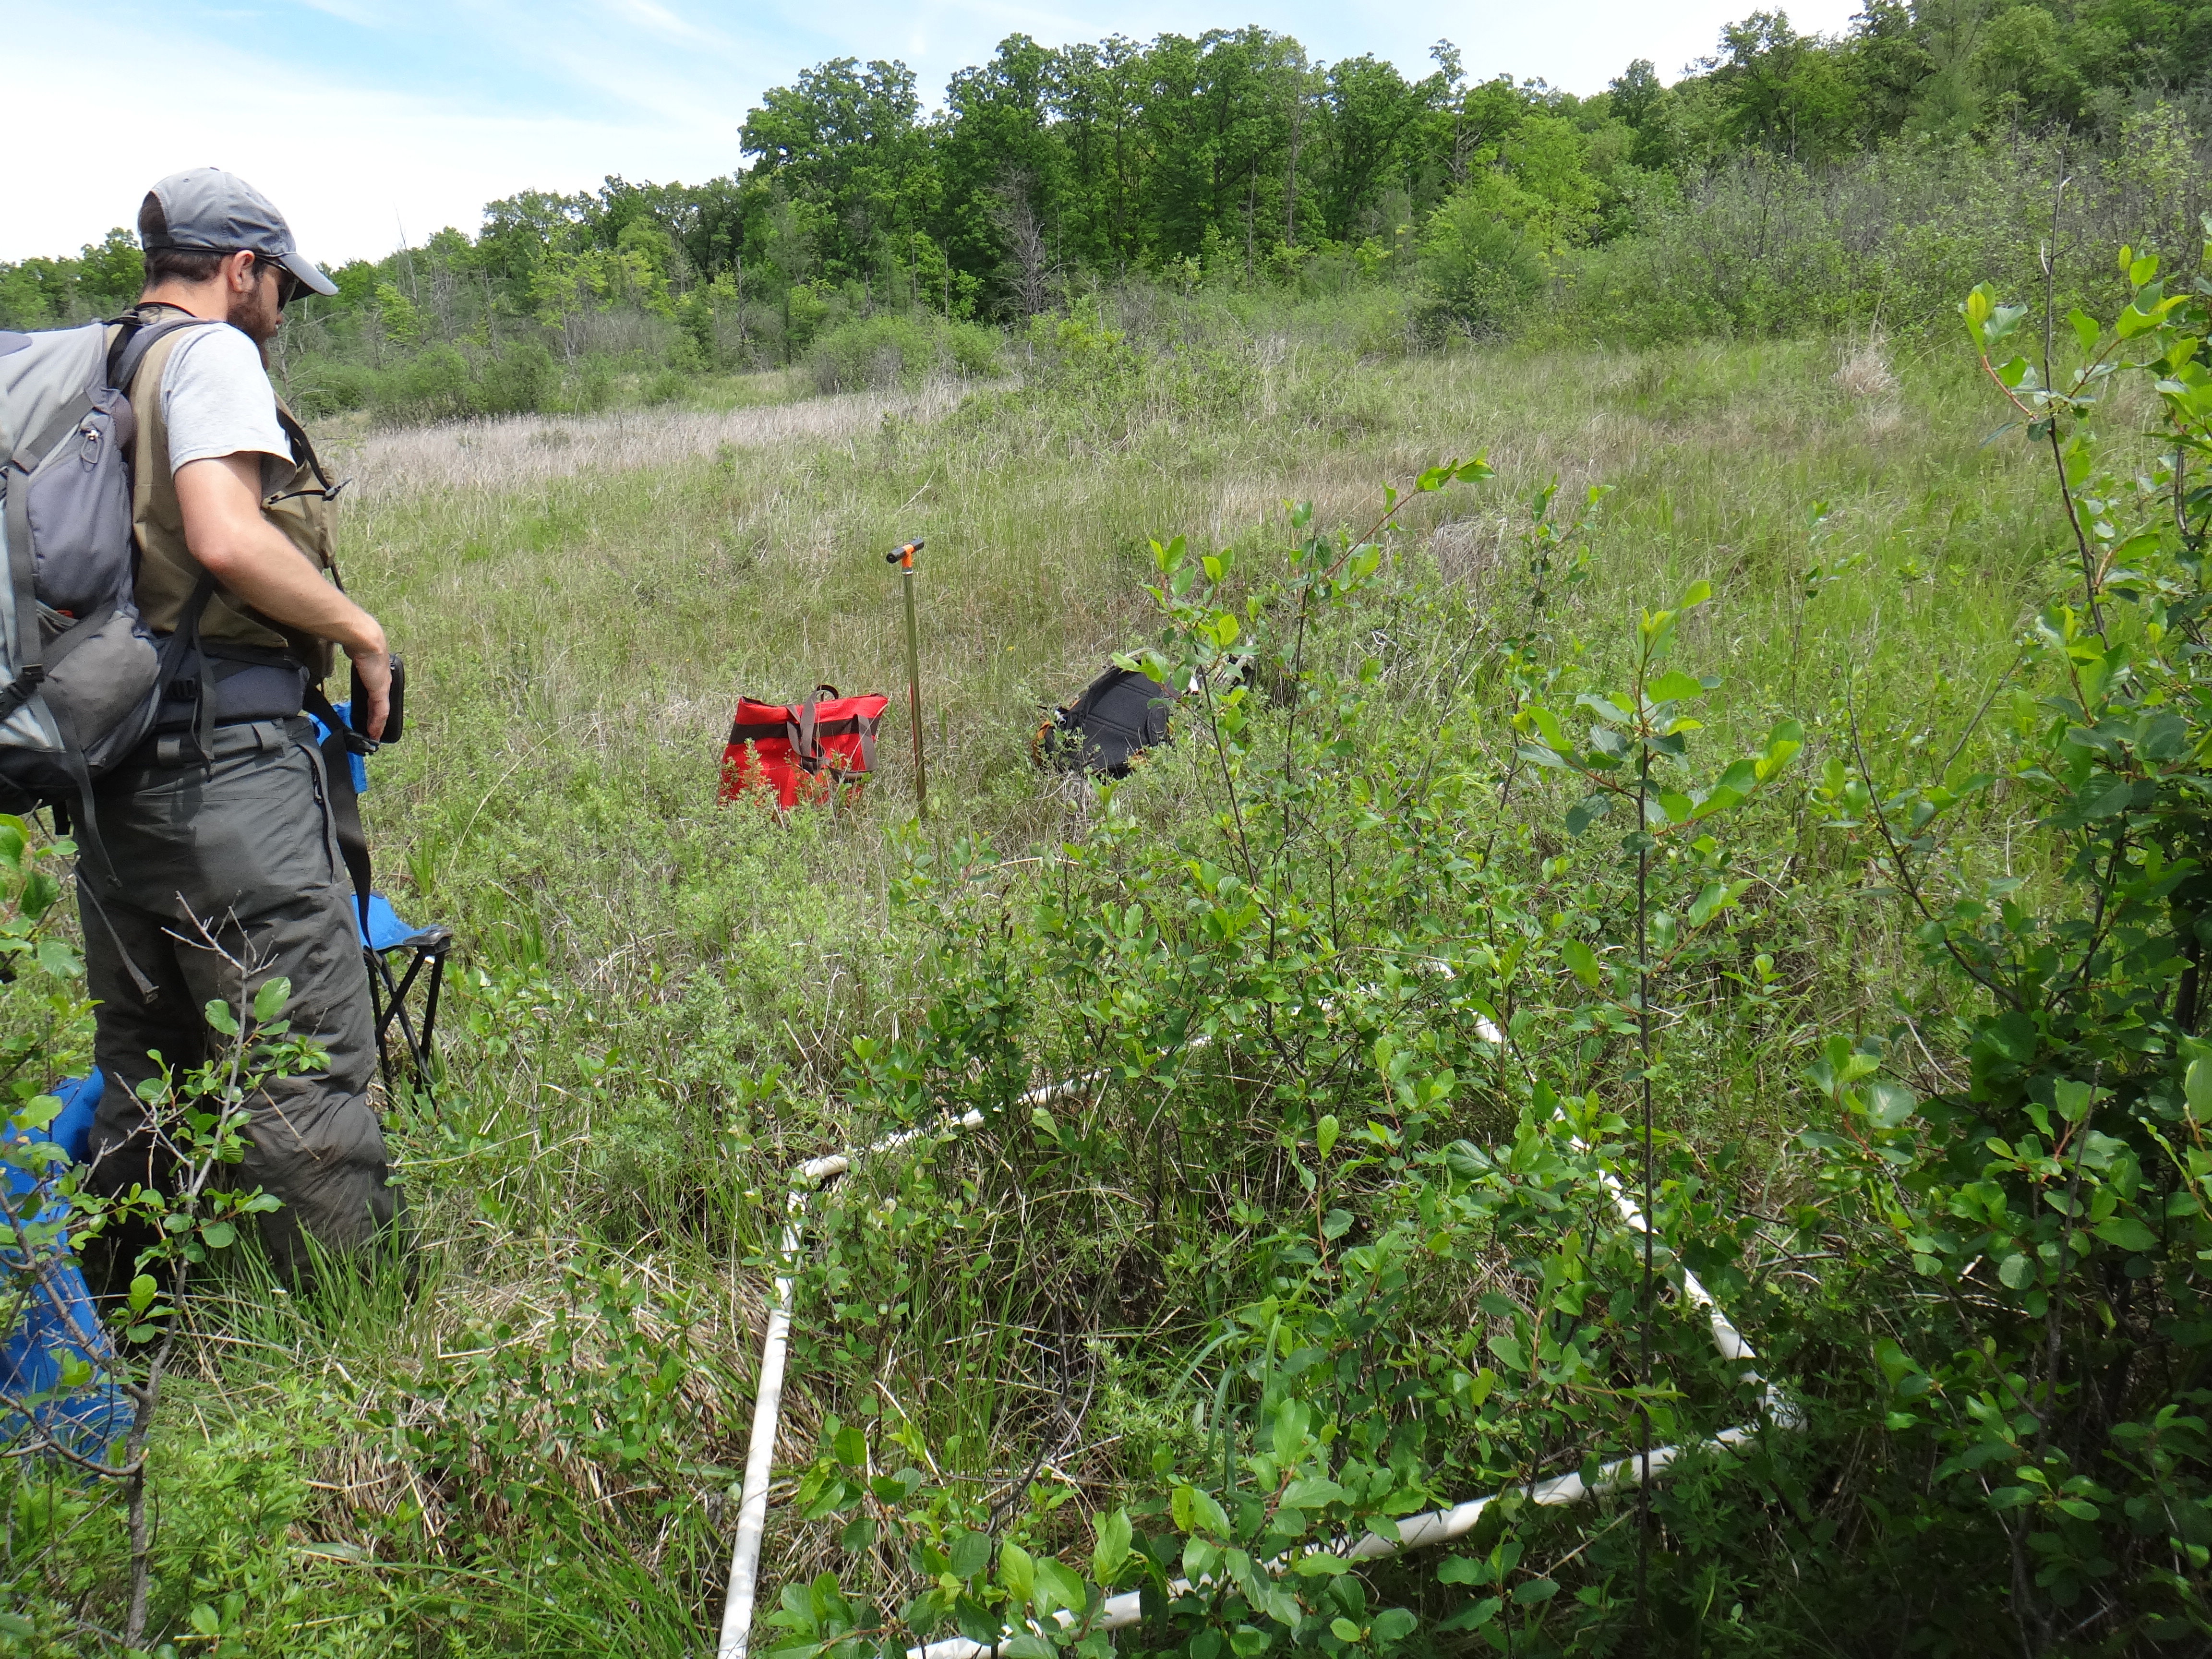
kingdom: Plantae
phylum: Tracheophyta
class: Magnoliopsida
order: Rosales
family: Rhamnaceae
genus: Frangula
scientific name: Frangula alnus
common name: Alder buckthorn
